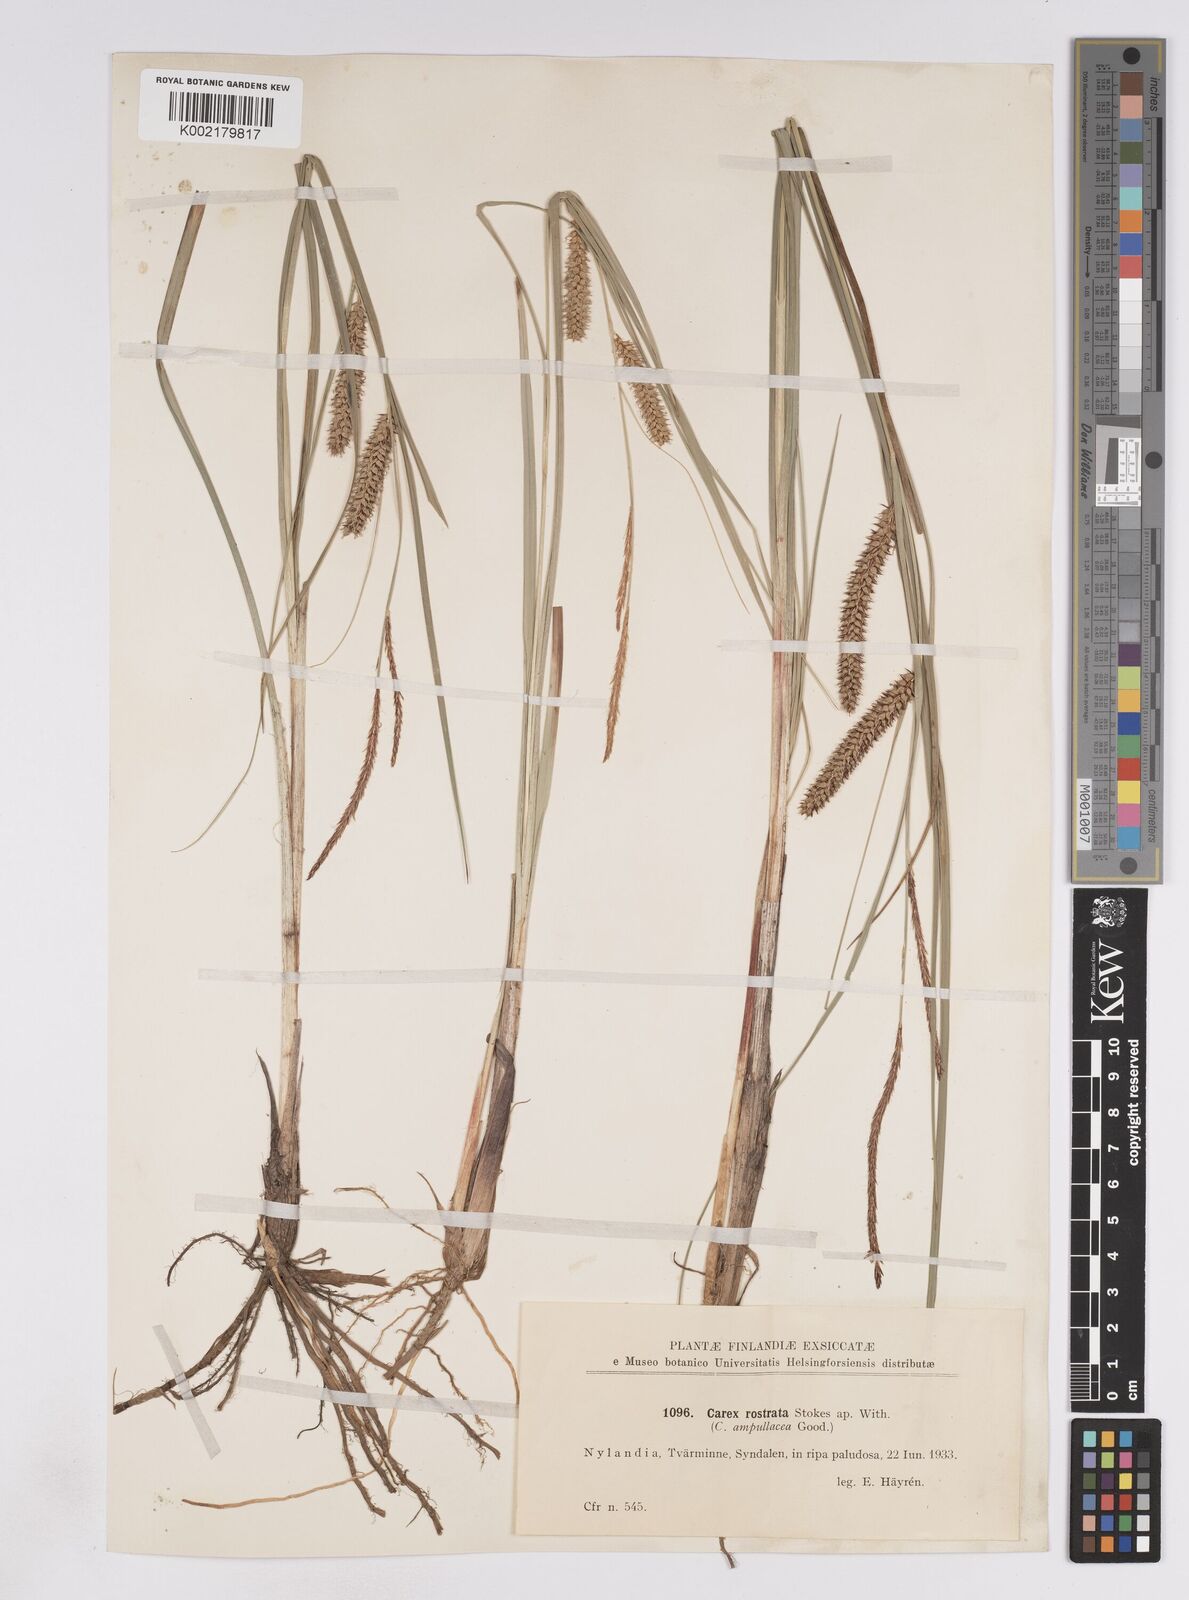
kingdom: Plantae
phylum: Tracheophyta
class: Liliopsida
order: Poales
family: Cyperaceae
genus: Carex
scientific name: Carex rostrata
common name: Bottle sedge
